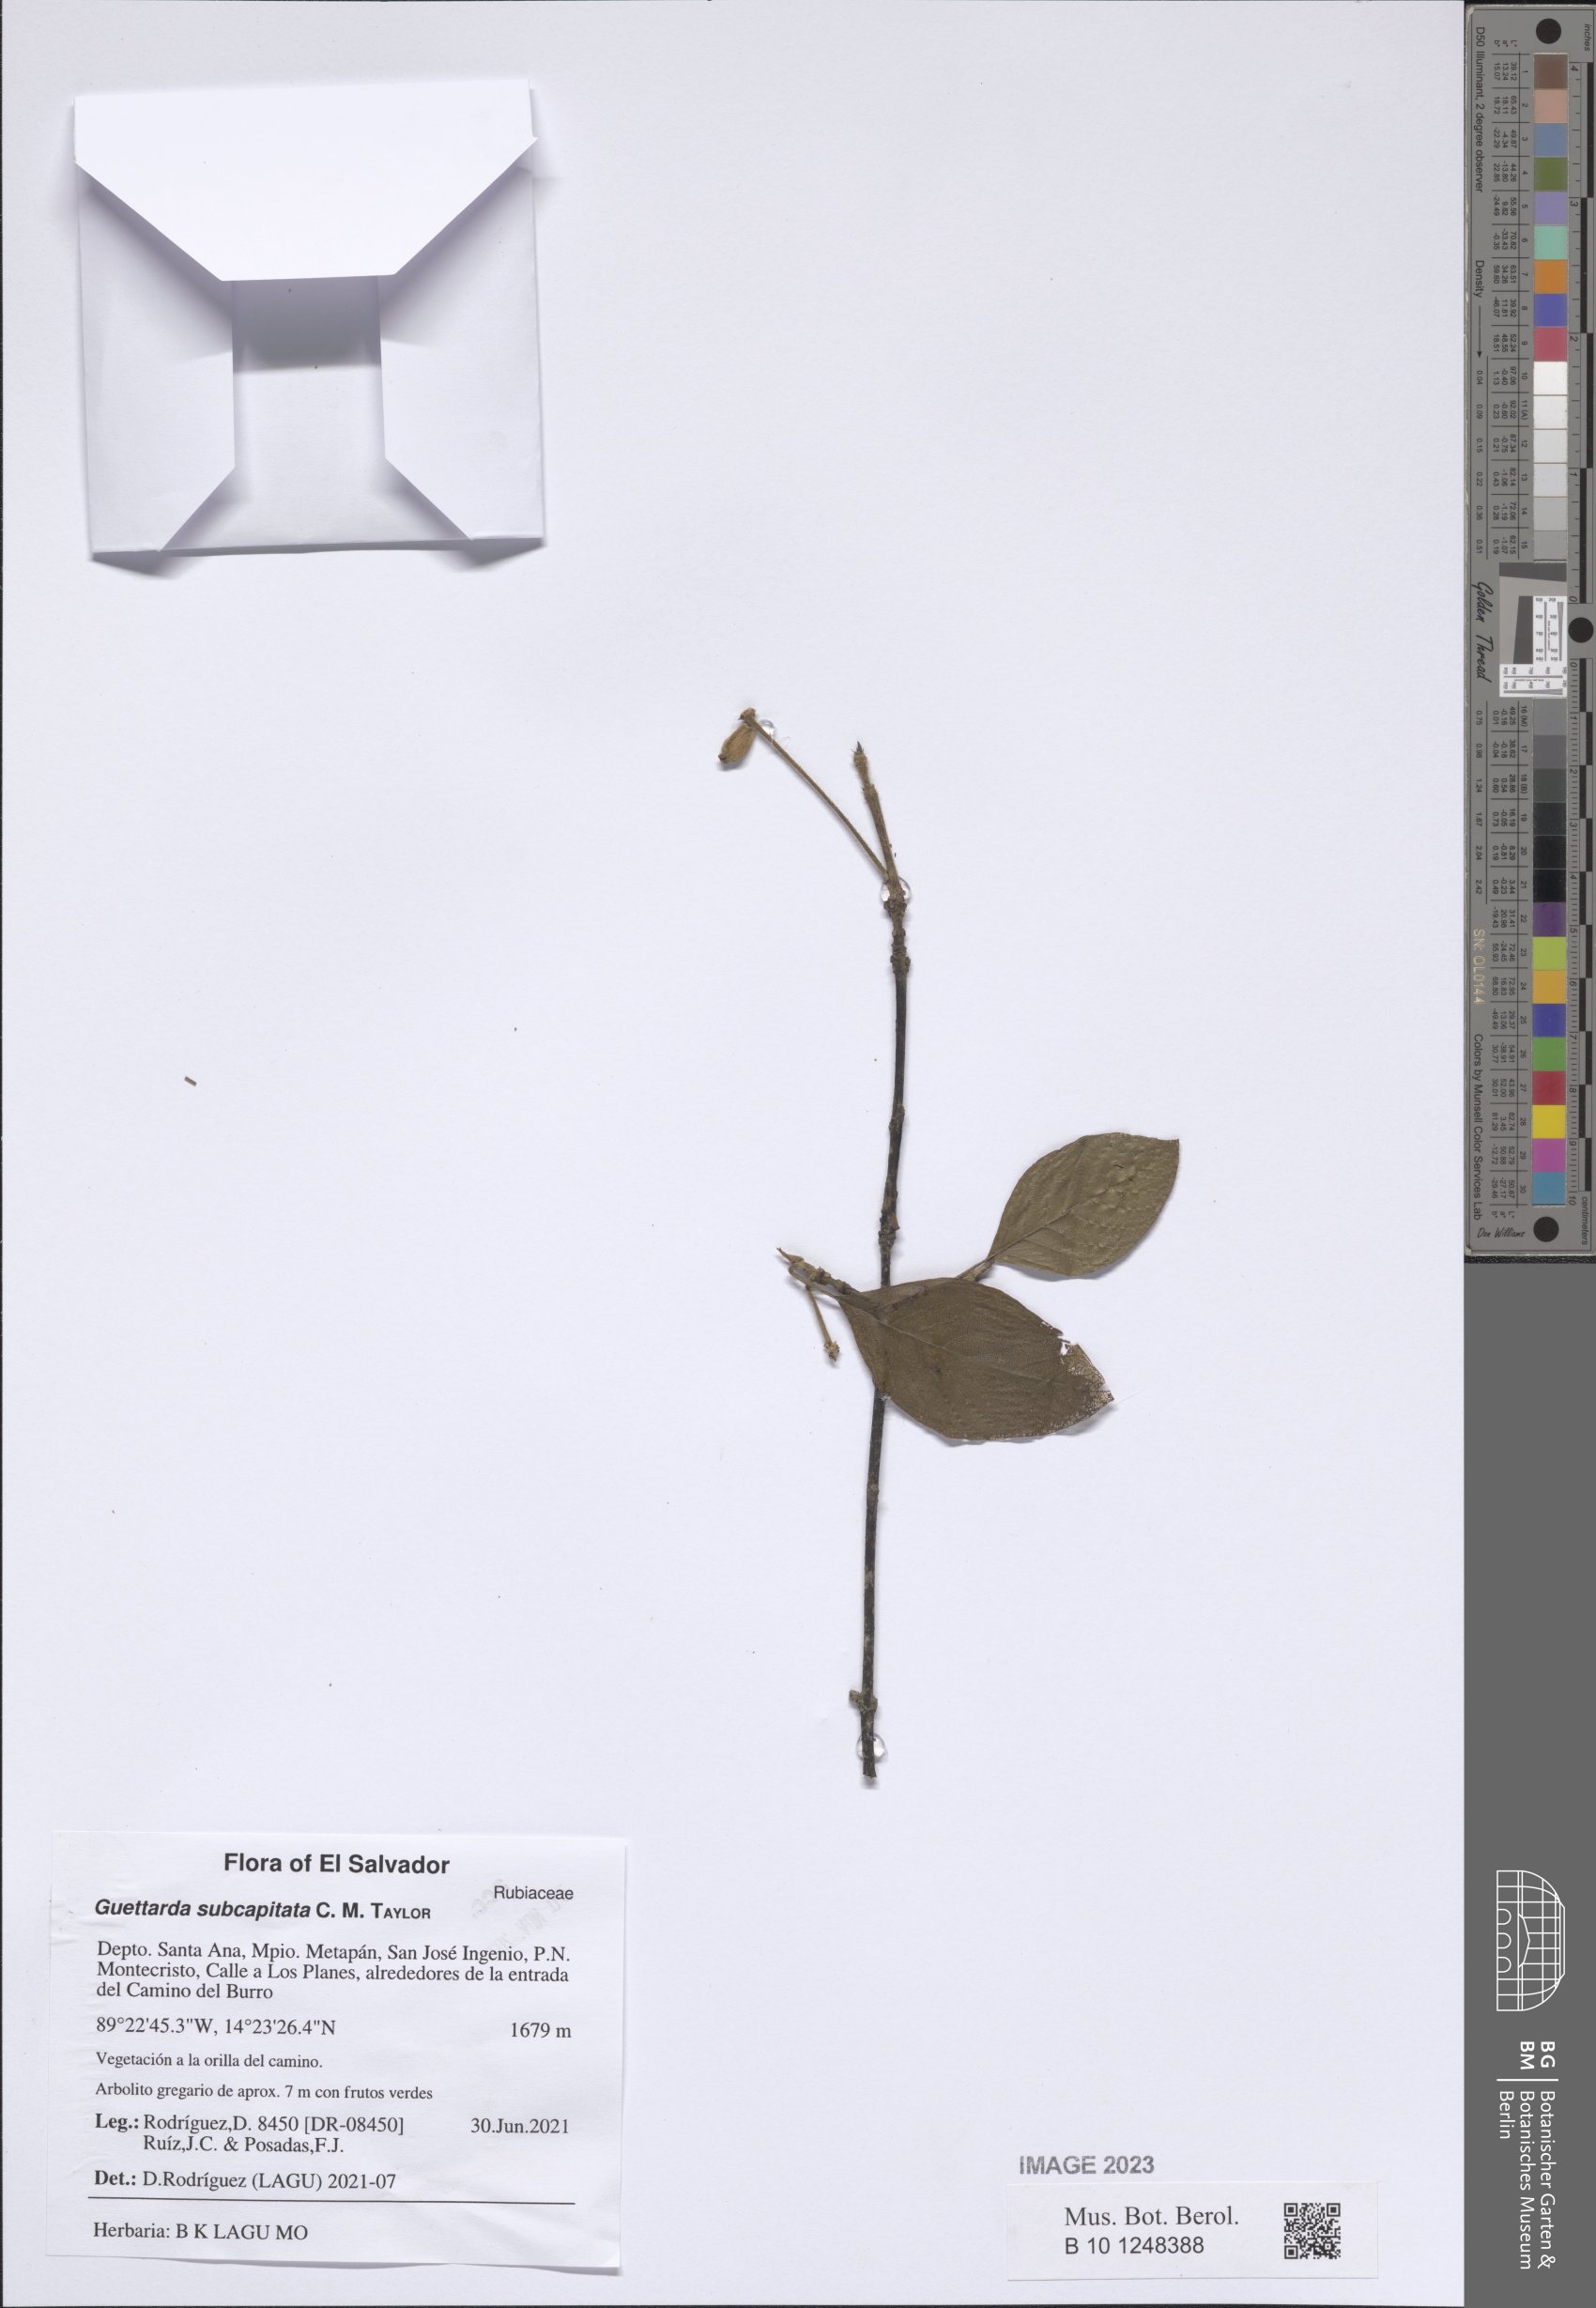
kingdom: Plantae
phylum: Tracheophyta
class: Magnoliopsida
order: Gentianales
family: Rubiaceae
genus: Guettarda
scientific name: Guettarda subcapitata
